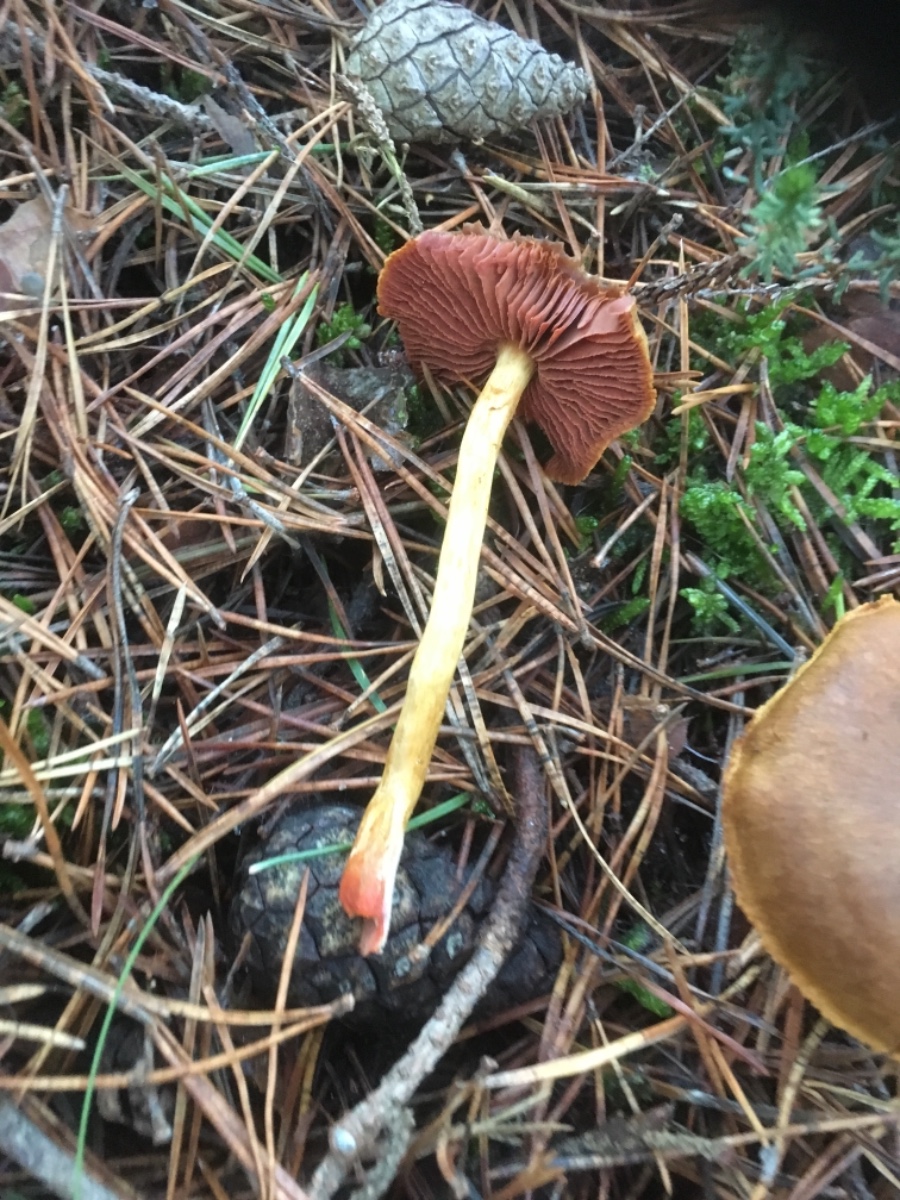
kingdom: Fungi
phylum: Basidiomycota
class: Agaricomycetes
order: Agaricales
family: Cortinariaceae
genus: Cortinarius
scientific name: Cortinarius
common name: cinnoberbladet slørhat
